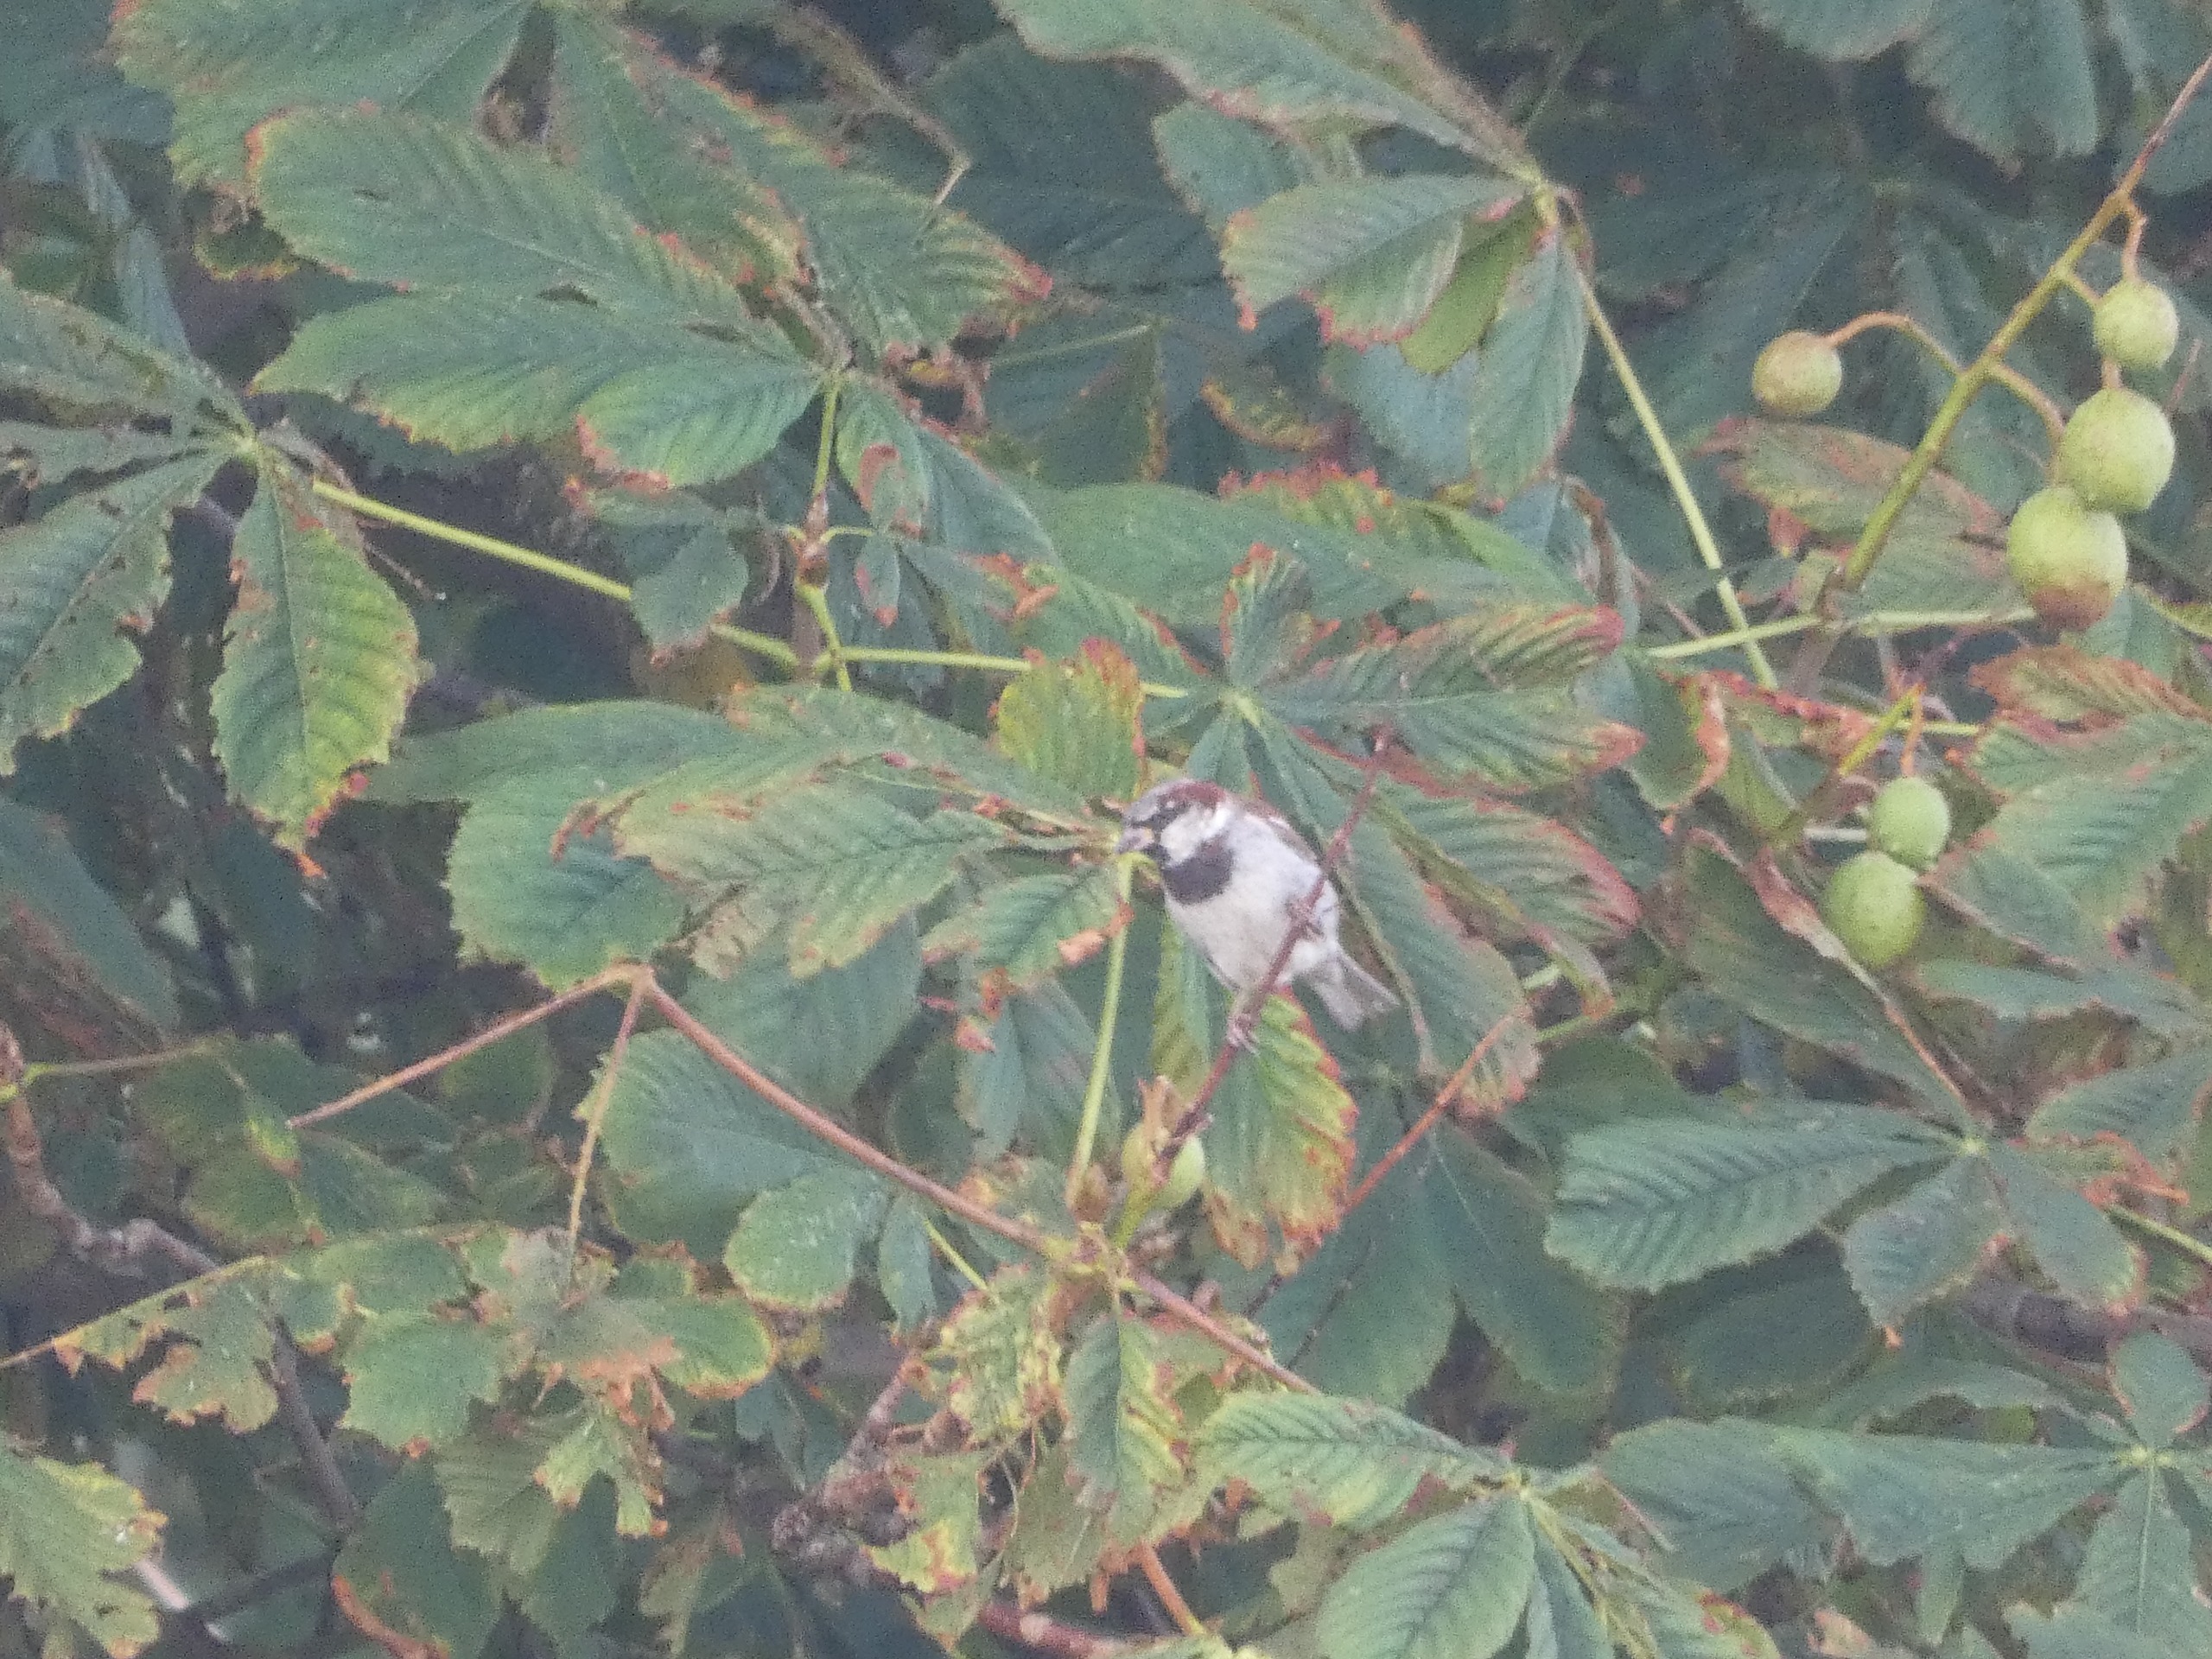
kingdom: Animalia
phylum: Chordata
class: Aves
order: Passeriformes
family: Passeridae
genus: Passer
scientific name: Passer domesticus
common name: Gråspurv
